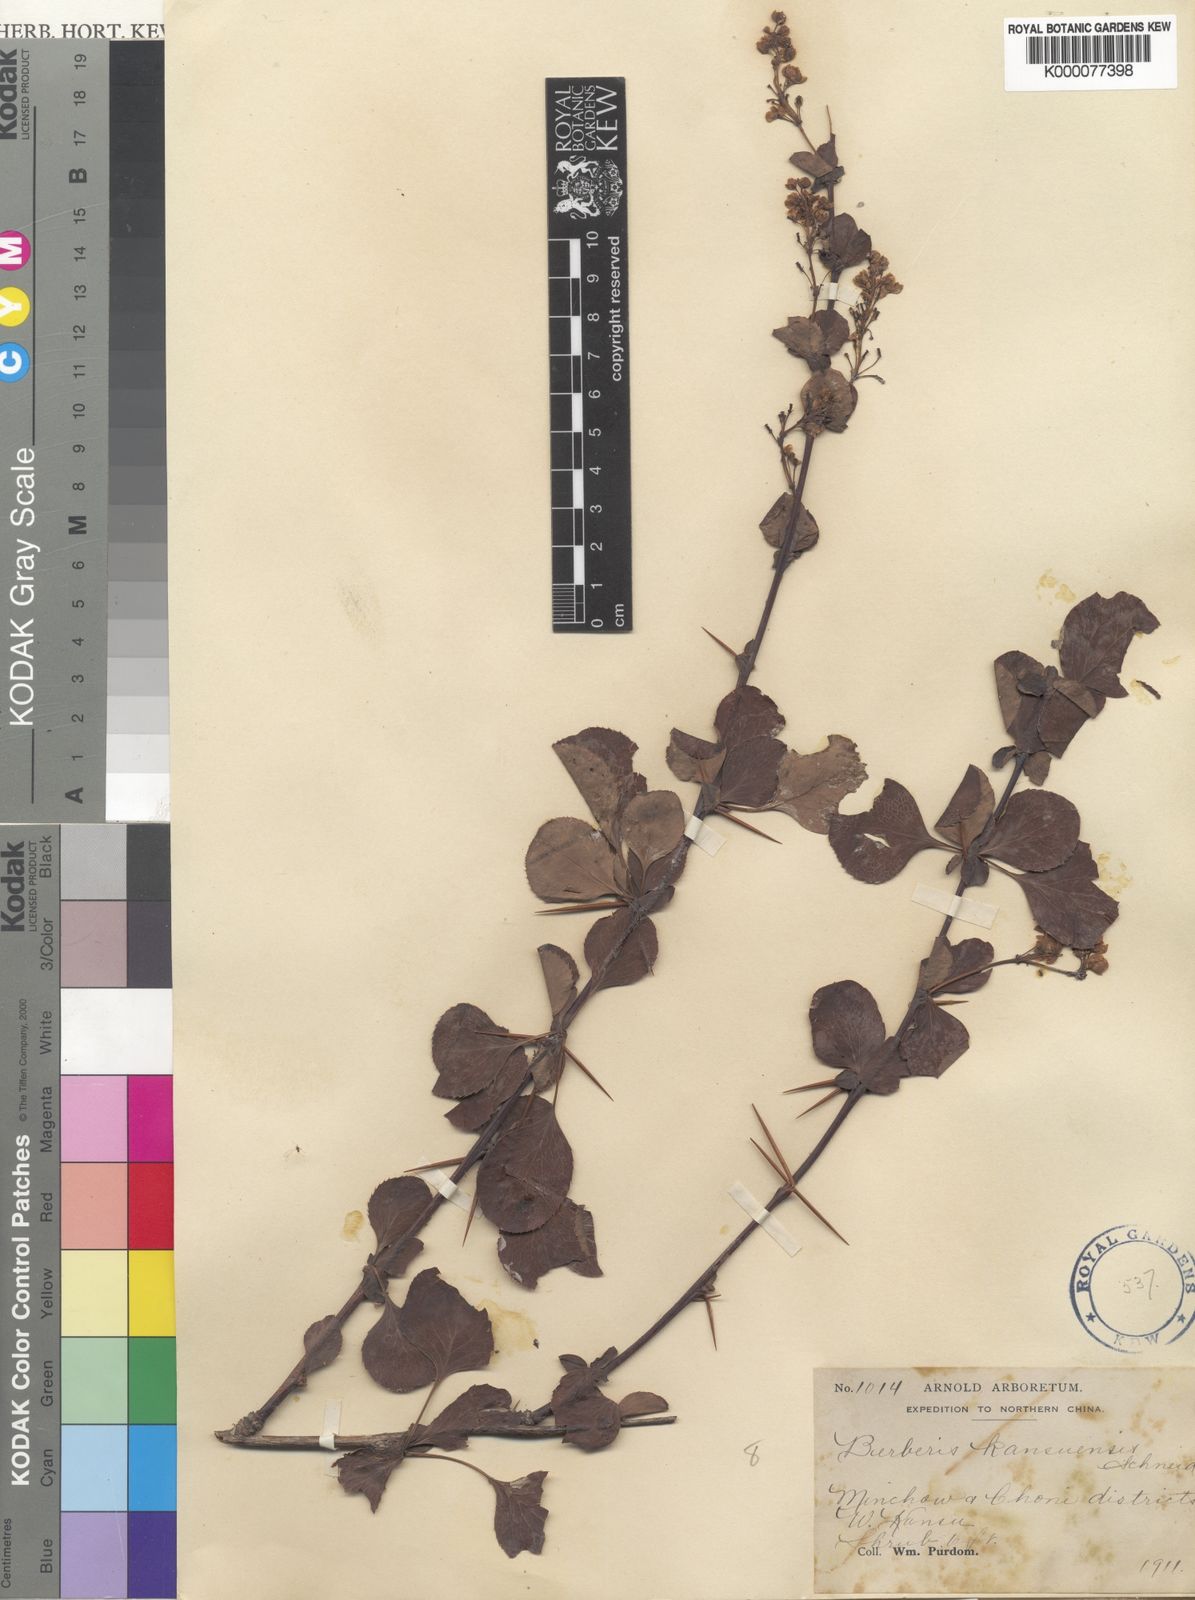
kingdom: Plantae
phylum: Tracheophyta
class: Magnoliopsida
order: Ranunculales
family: Berberidaceae
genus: Berberis
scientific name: Berberis dasystachya
